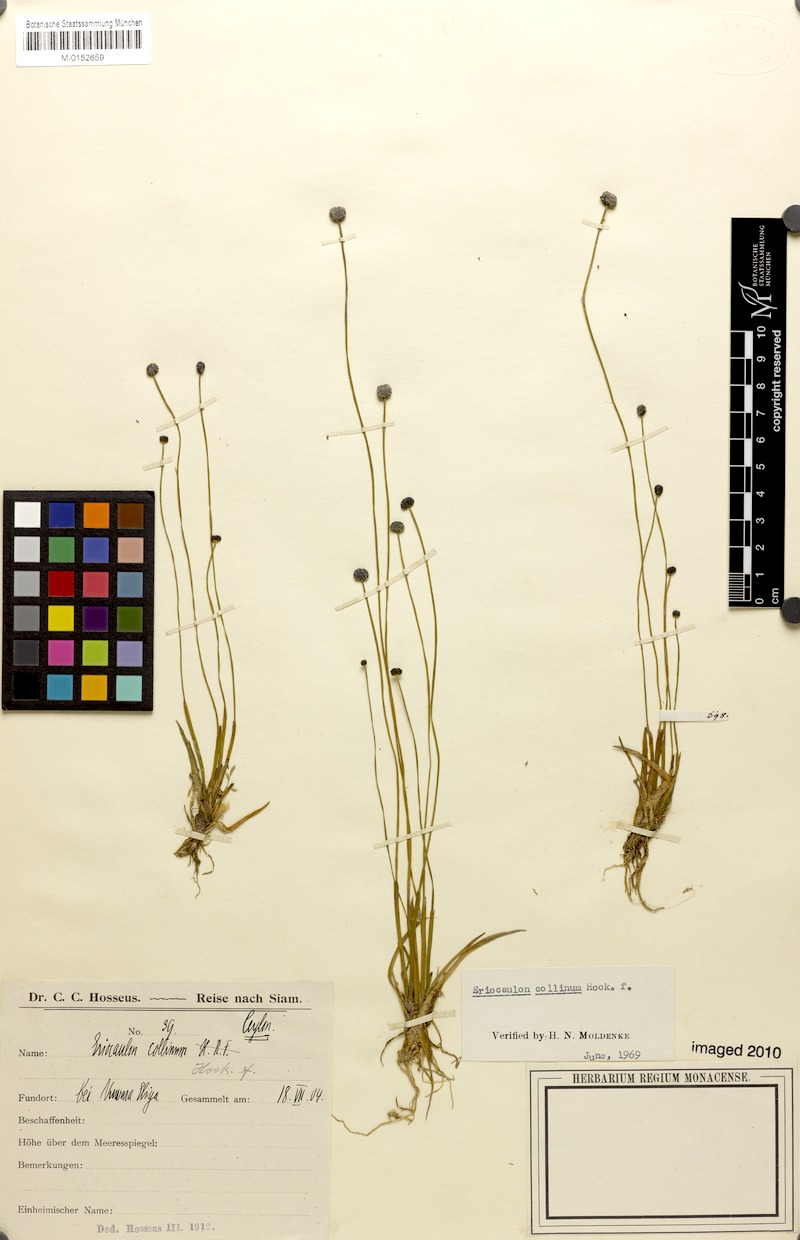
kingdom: Plantae
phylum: Tracheophyta
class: Liliopsida
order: Poales
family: Eriocaulaceae
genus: Eriocaulon
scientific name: Eriocaulon odoratum
